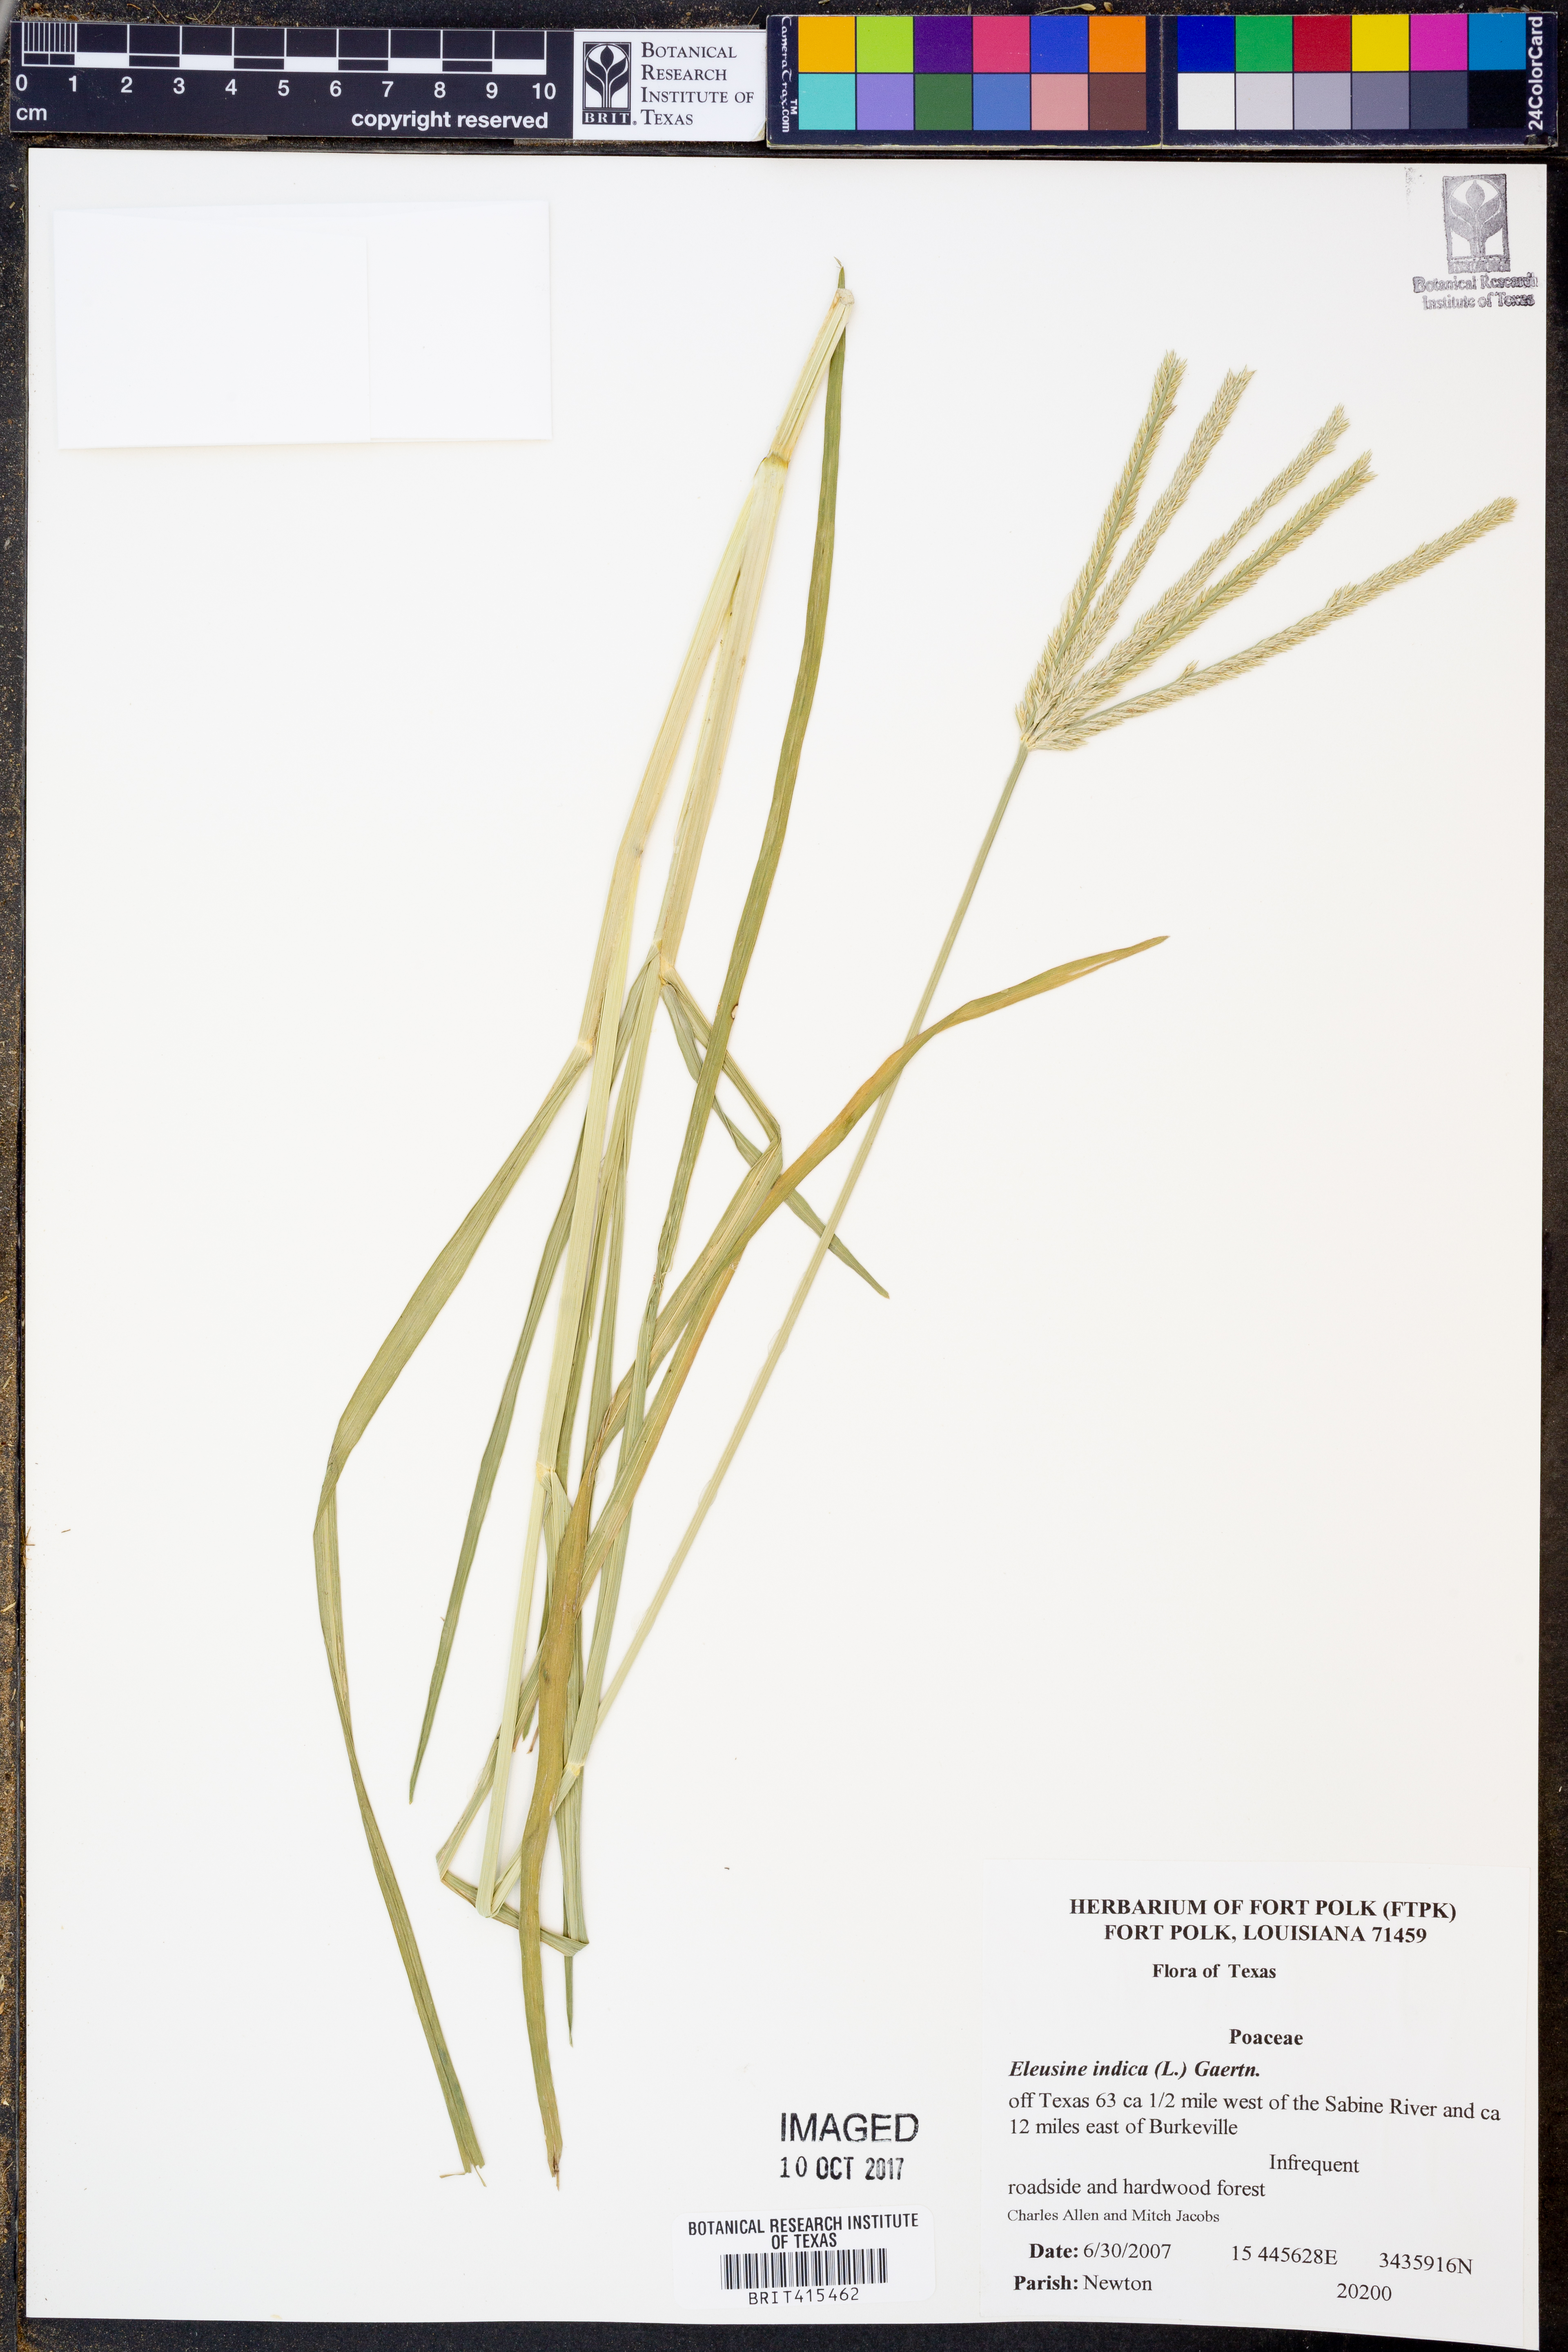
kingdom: Plantae
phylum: Tracheophyta
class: Liliopsida
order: Poales
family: Poaceae
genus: Eleusine
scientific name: Eleusine indica
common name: Yard-grass
